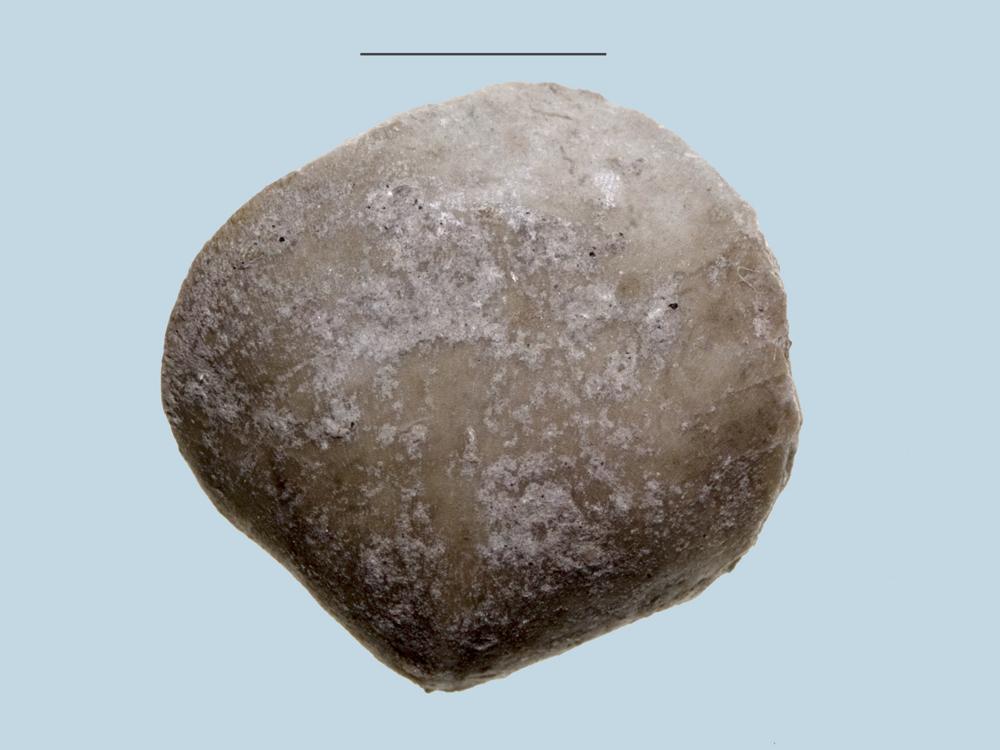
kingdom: Animalia
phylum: Brachiopoda
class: Rhynchonellata
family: Porambonitidae
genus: Porambonites
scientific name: Porambonites
